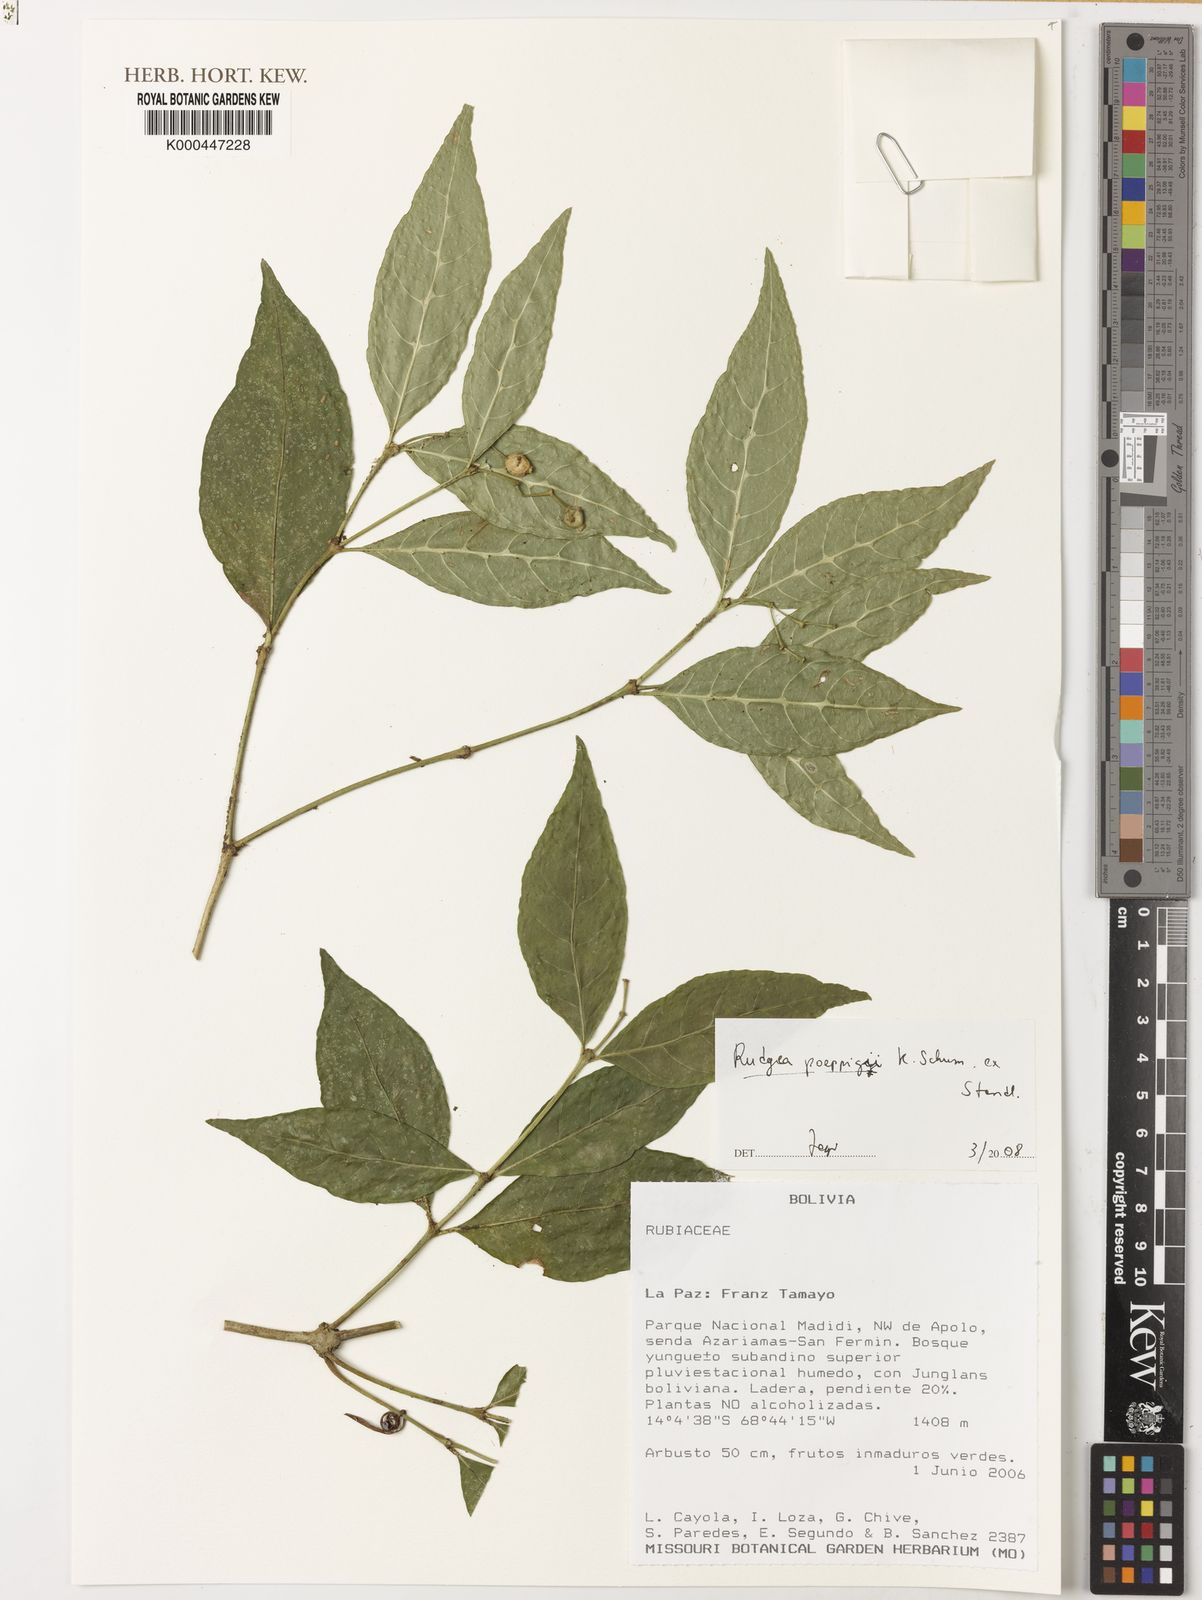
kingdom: Plantae
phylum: Tracheophyta
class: Magnoliopsida
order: Gentianales
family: Rubiaceae
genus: Rudgea
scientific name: Rudgea poeppigii
